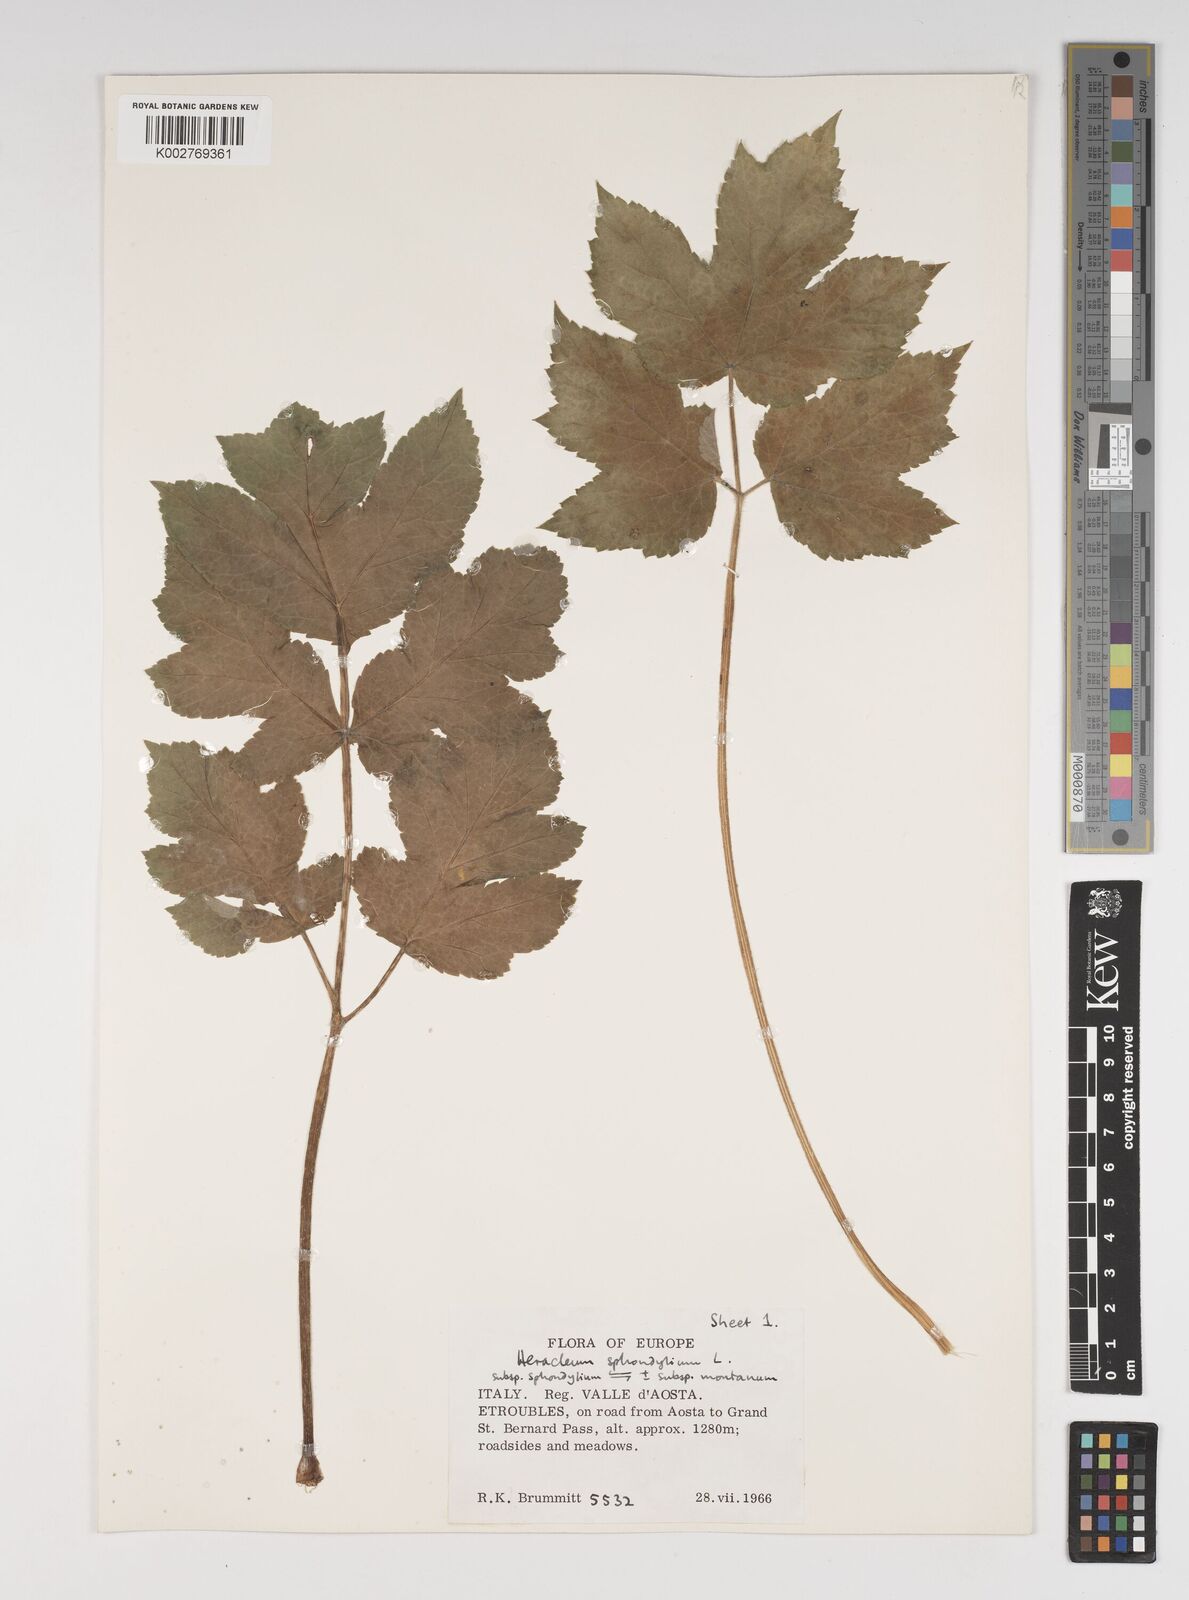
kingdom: Plantae
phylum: Tracheophyta
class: Magnoliopsida
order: Apiales
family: Apiaceae
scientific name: Apiaceae
